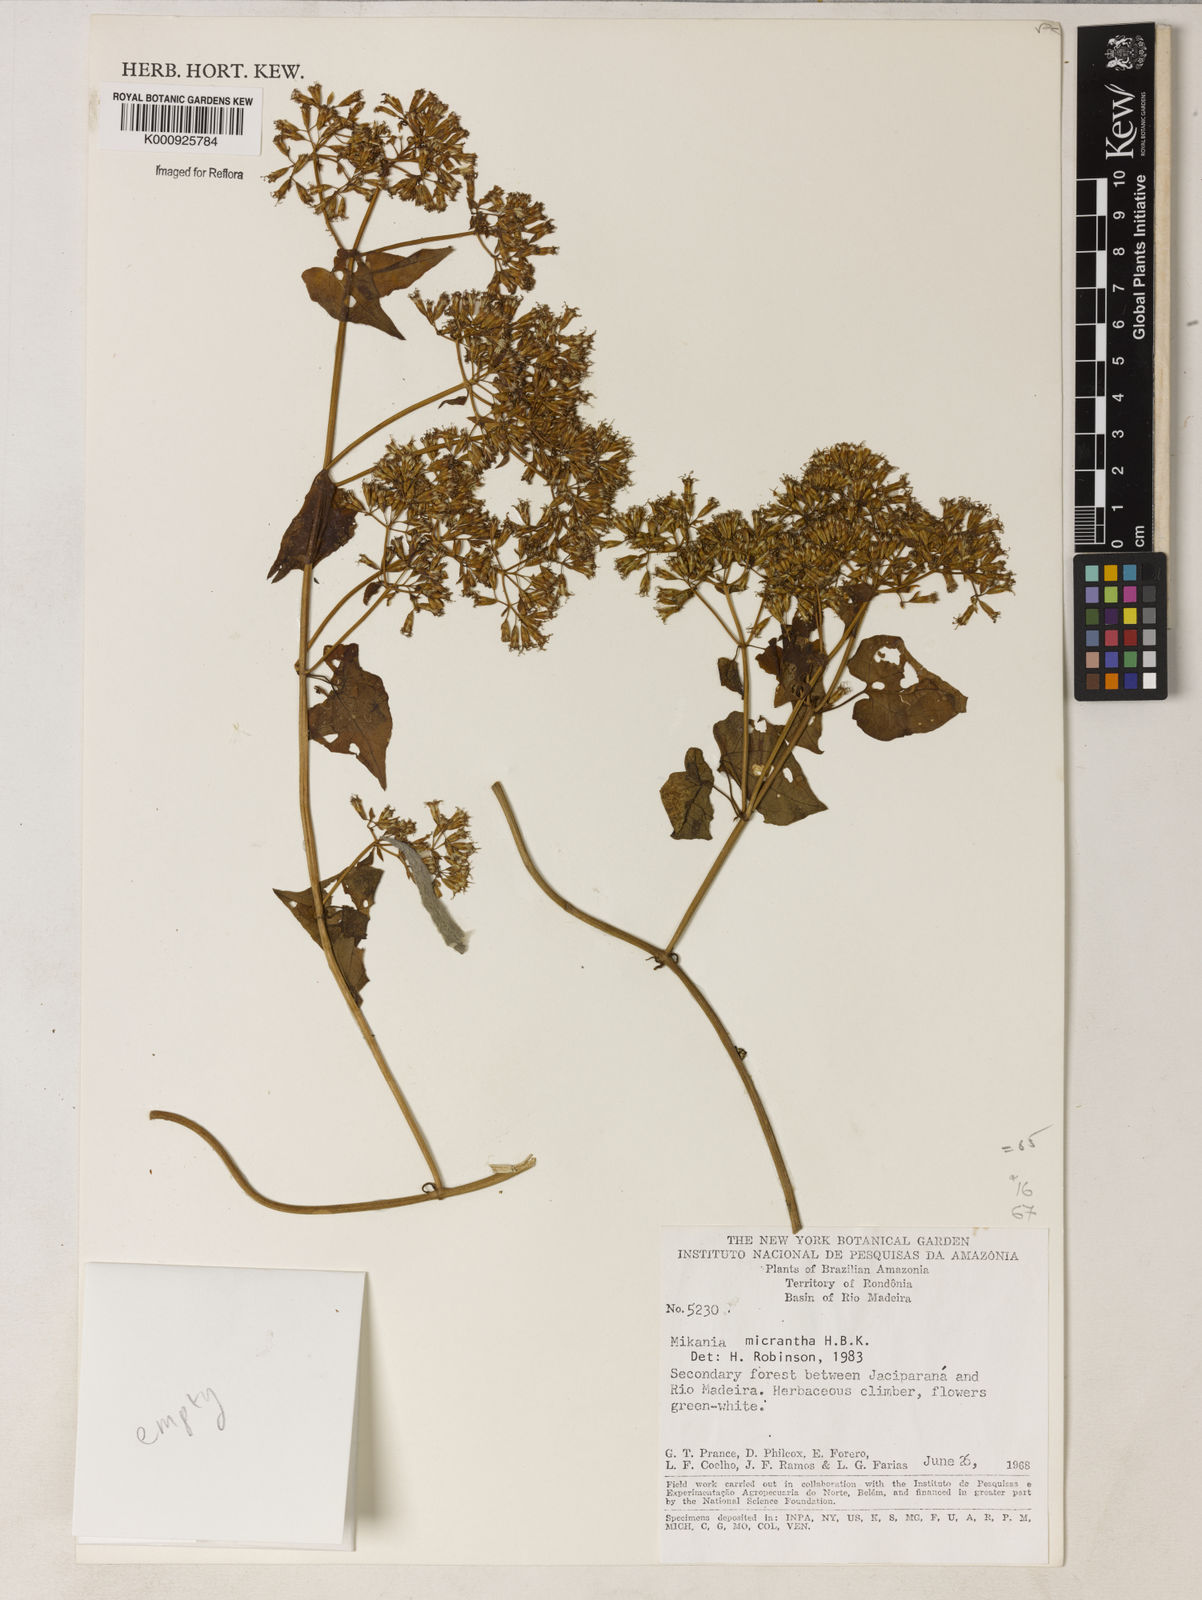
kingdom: Plantae
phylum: Tracheophyta
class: Magnoliopsida
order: Asterales
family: Asteraceae
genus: Mikania
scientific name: Mikania
